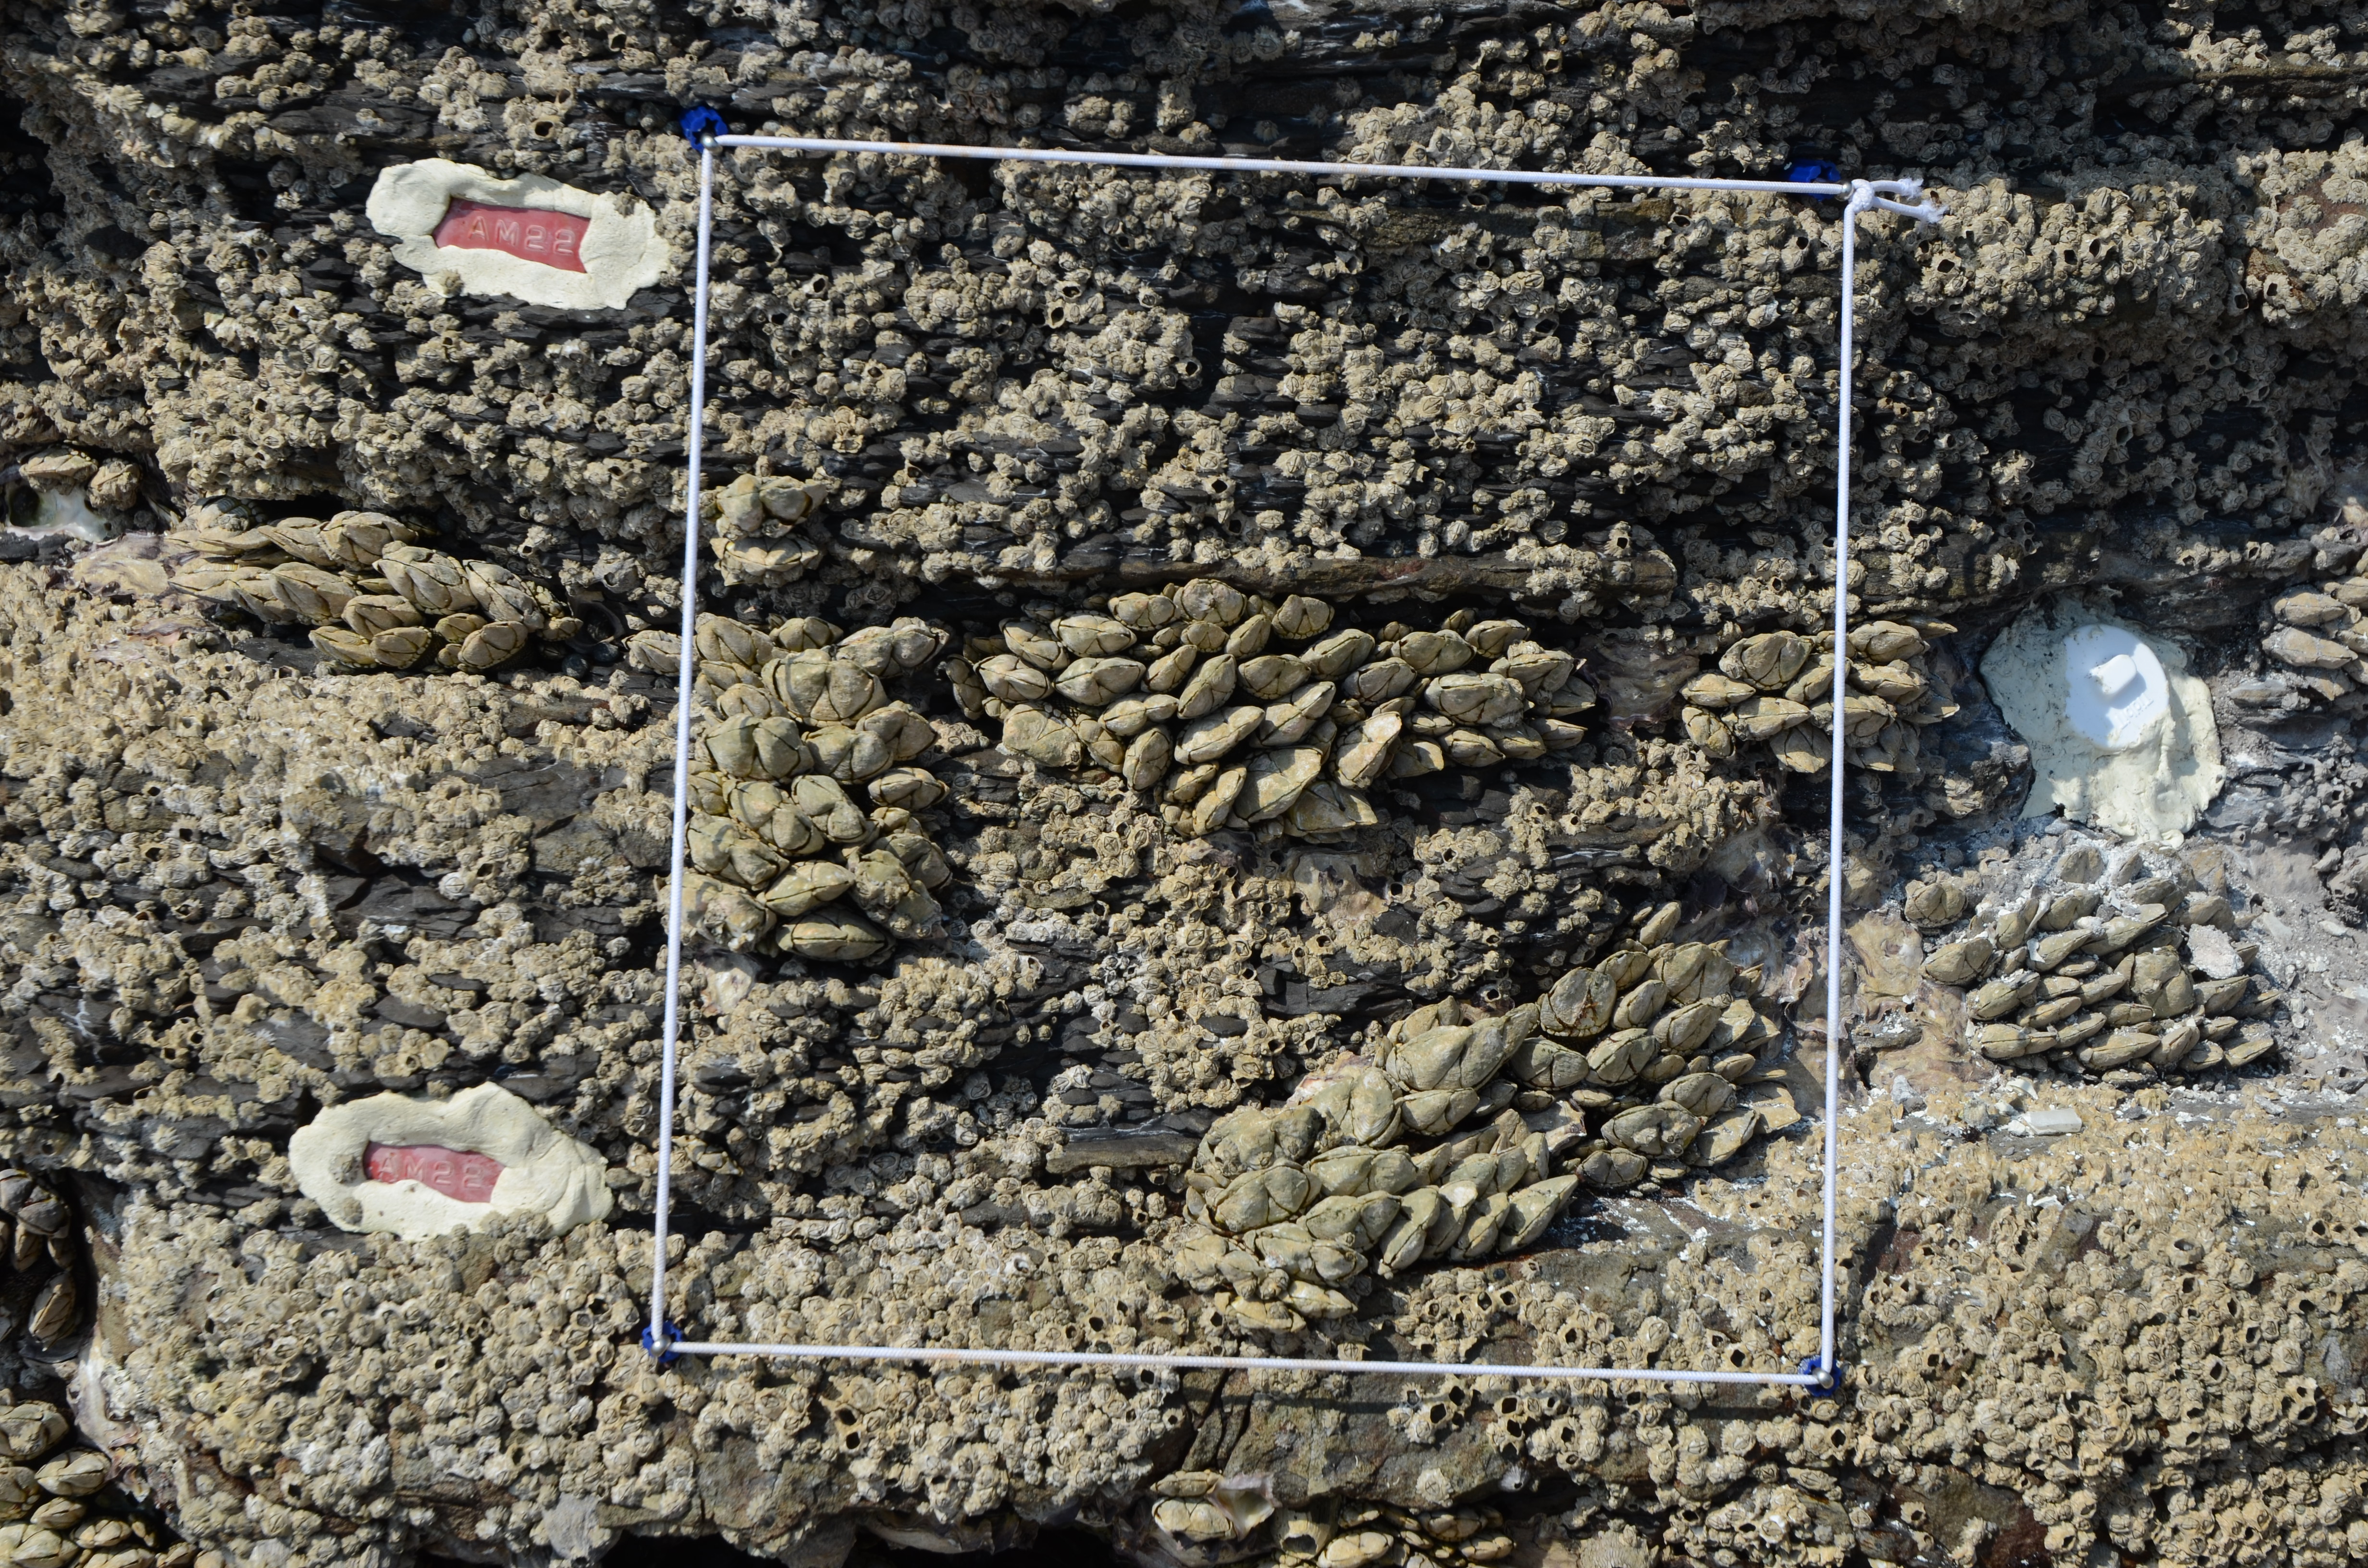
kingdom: Animalia
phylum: Arthropoda
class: Maxillopoda
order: Sessilia
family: Chthamalidae
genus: Chthamalus
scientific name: Chthamalus challengeri
